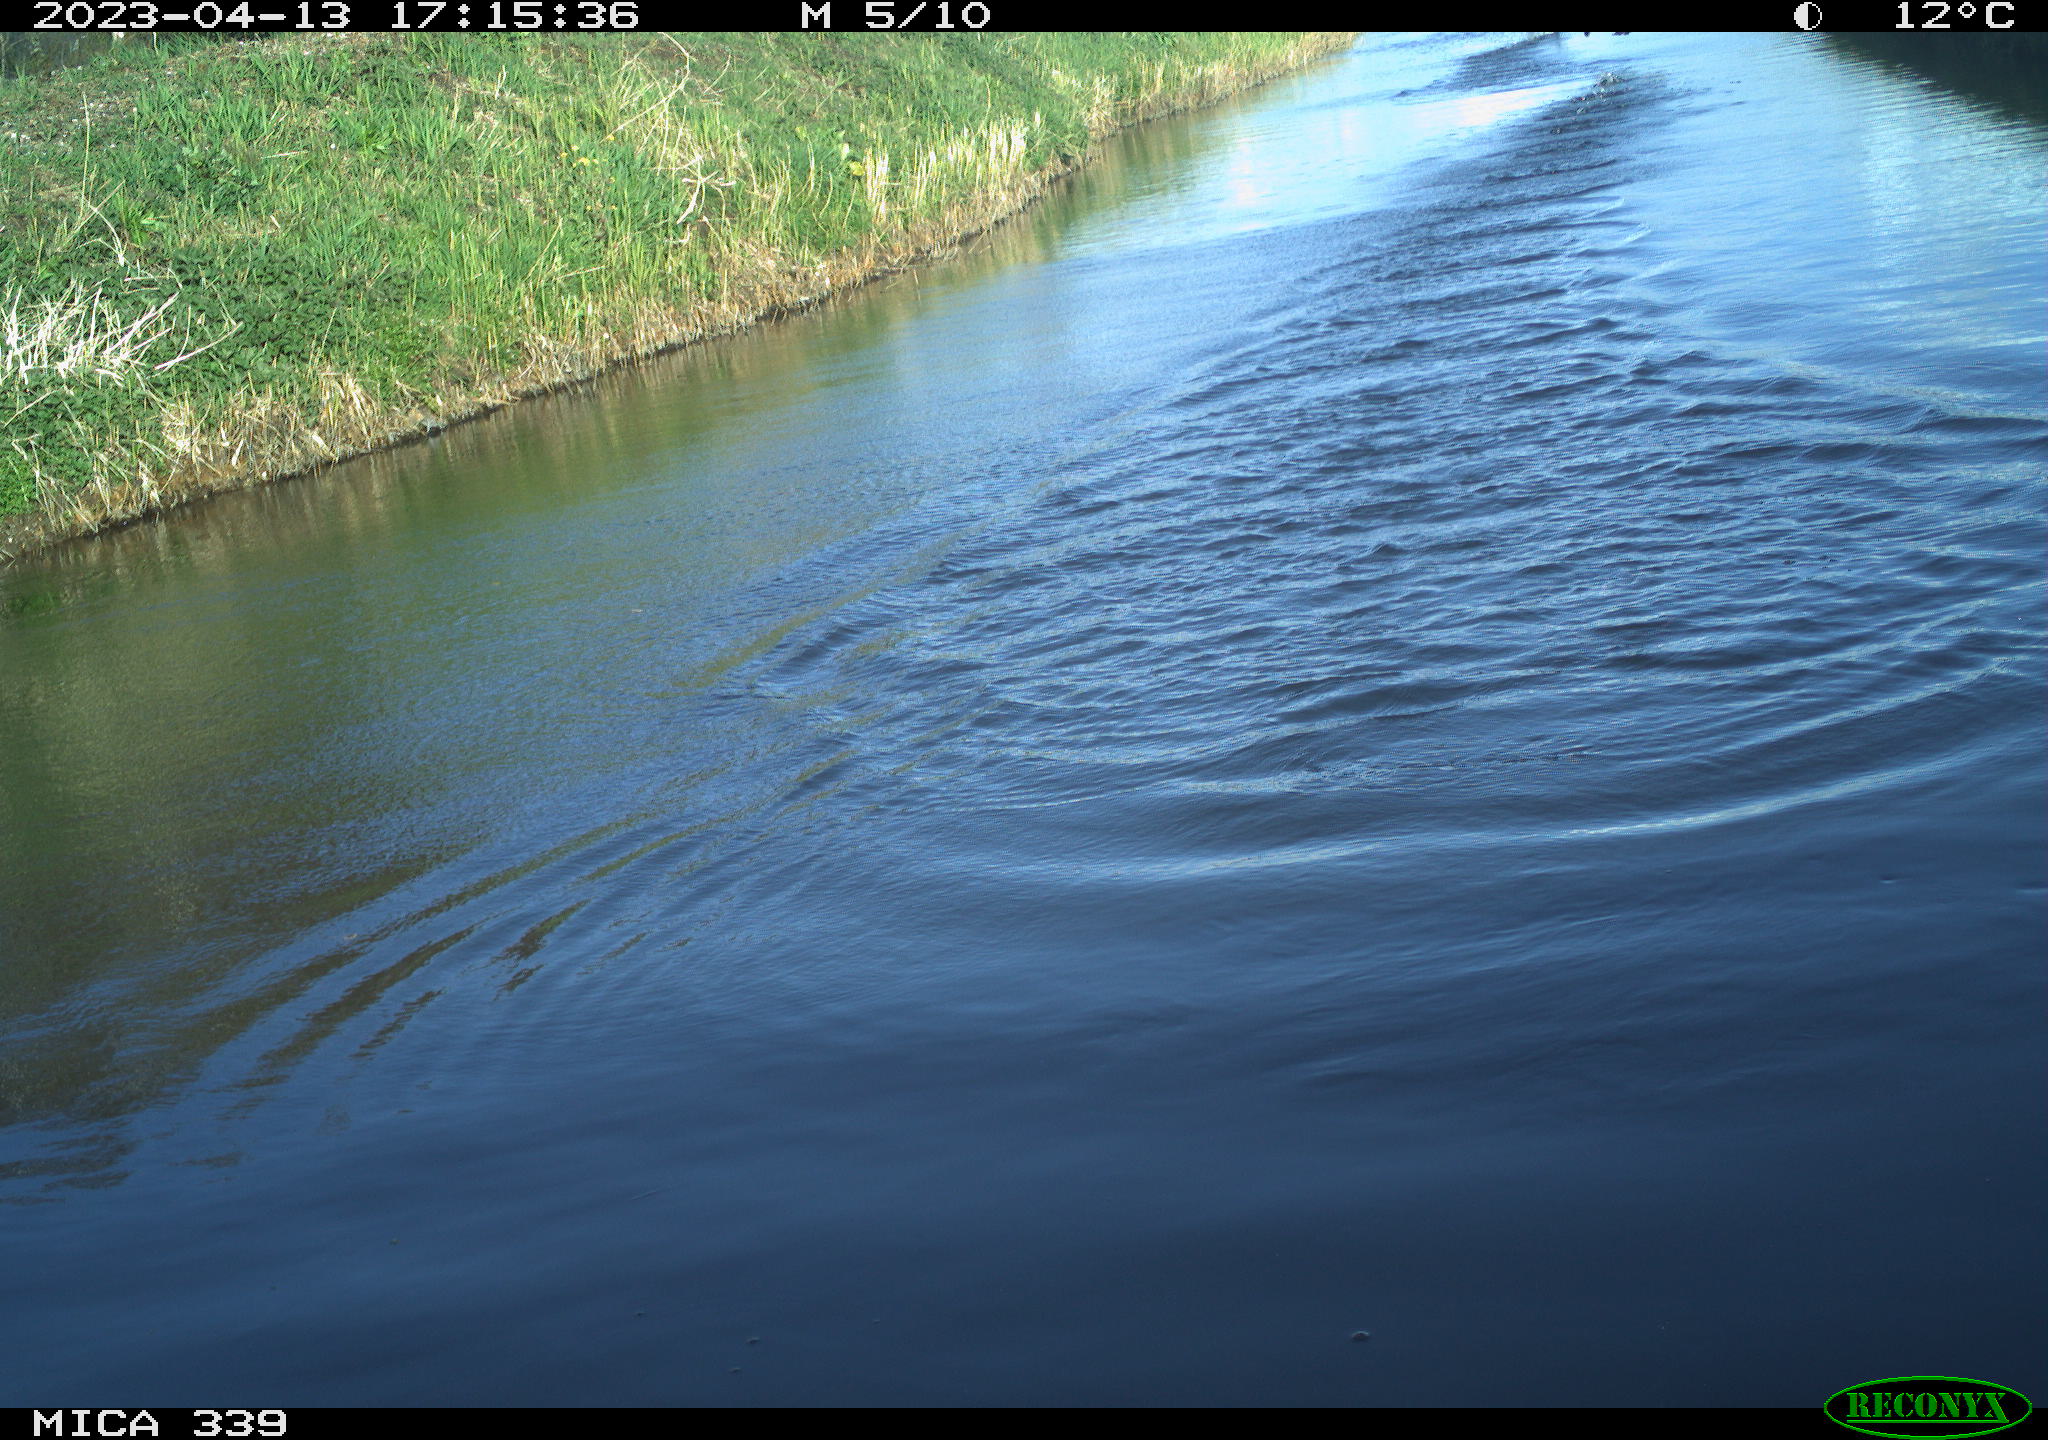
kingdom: Animalia
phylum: Chordata
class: Aves
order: Suliformes
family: Phalacrocoracidae
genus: Phalacrocorax
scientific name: Phalacrocorax carbo
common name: Great cormorant
